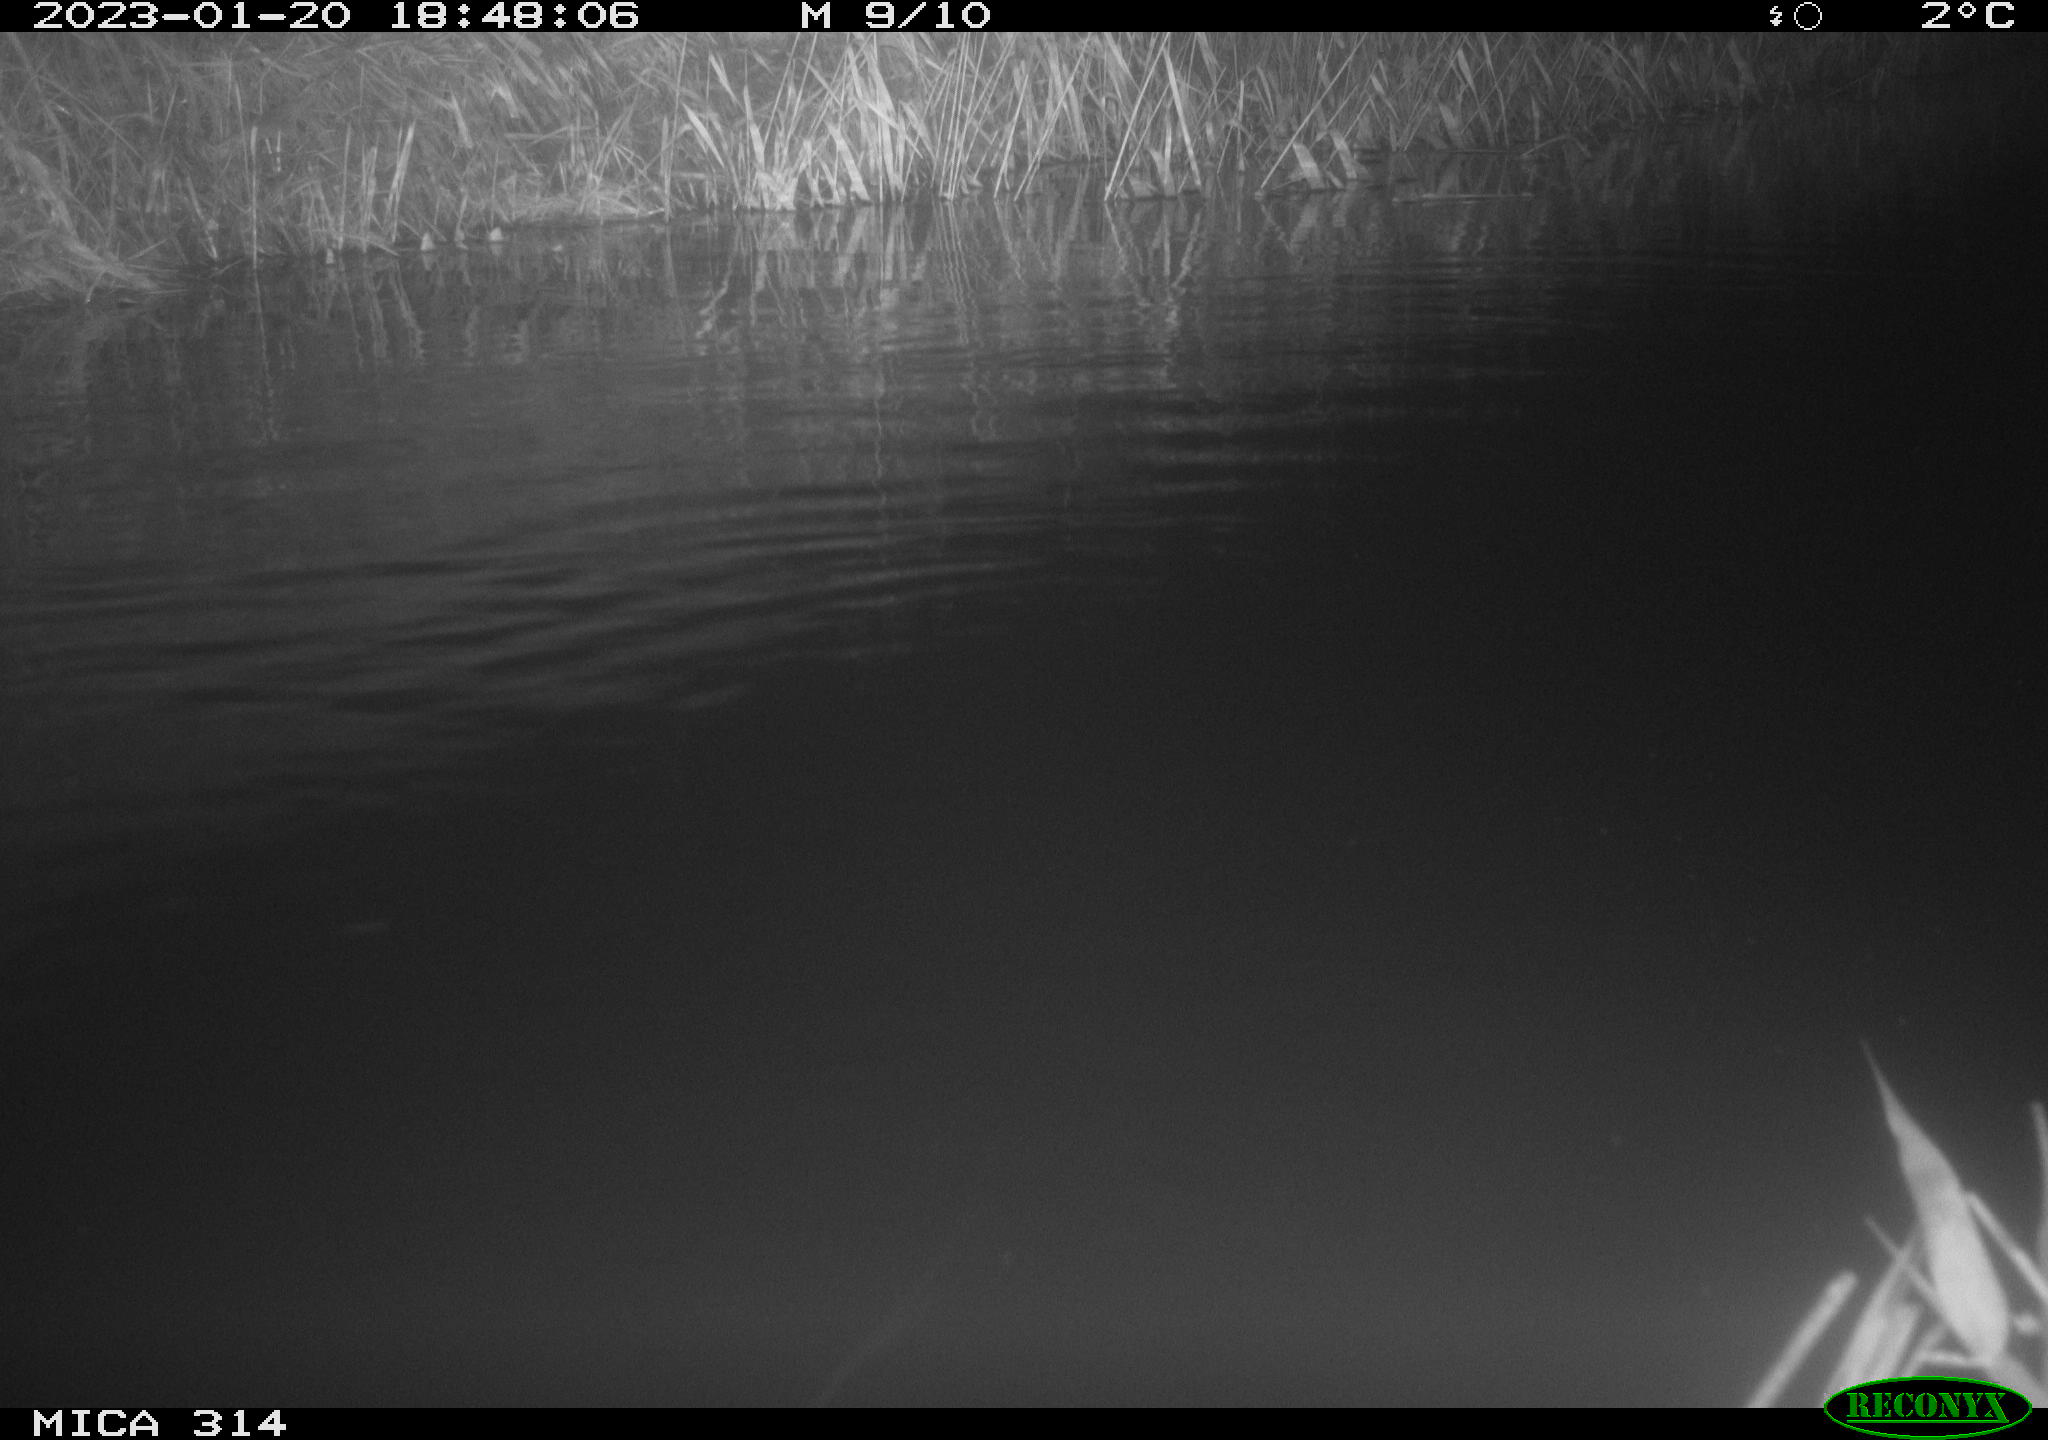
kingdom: Animalia
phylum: Chordata
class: Mammalia
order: Rodentia
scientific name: Rodentia
